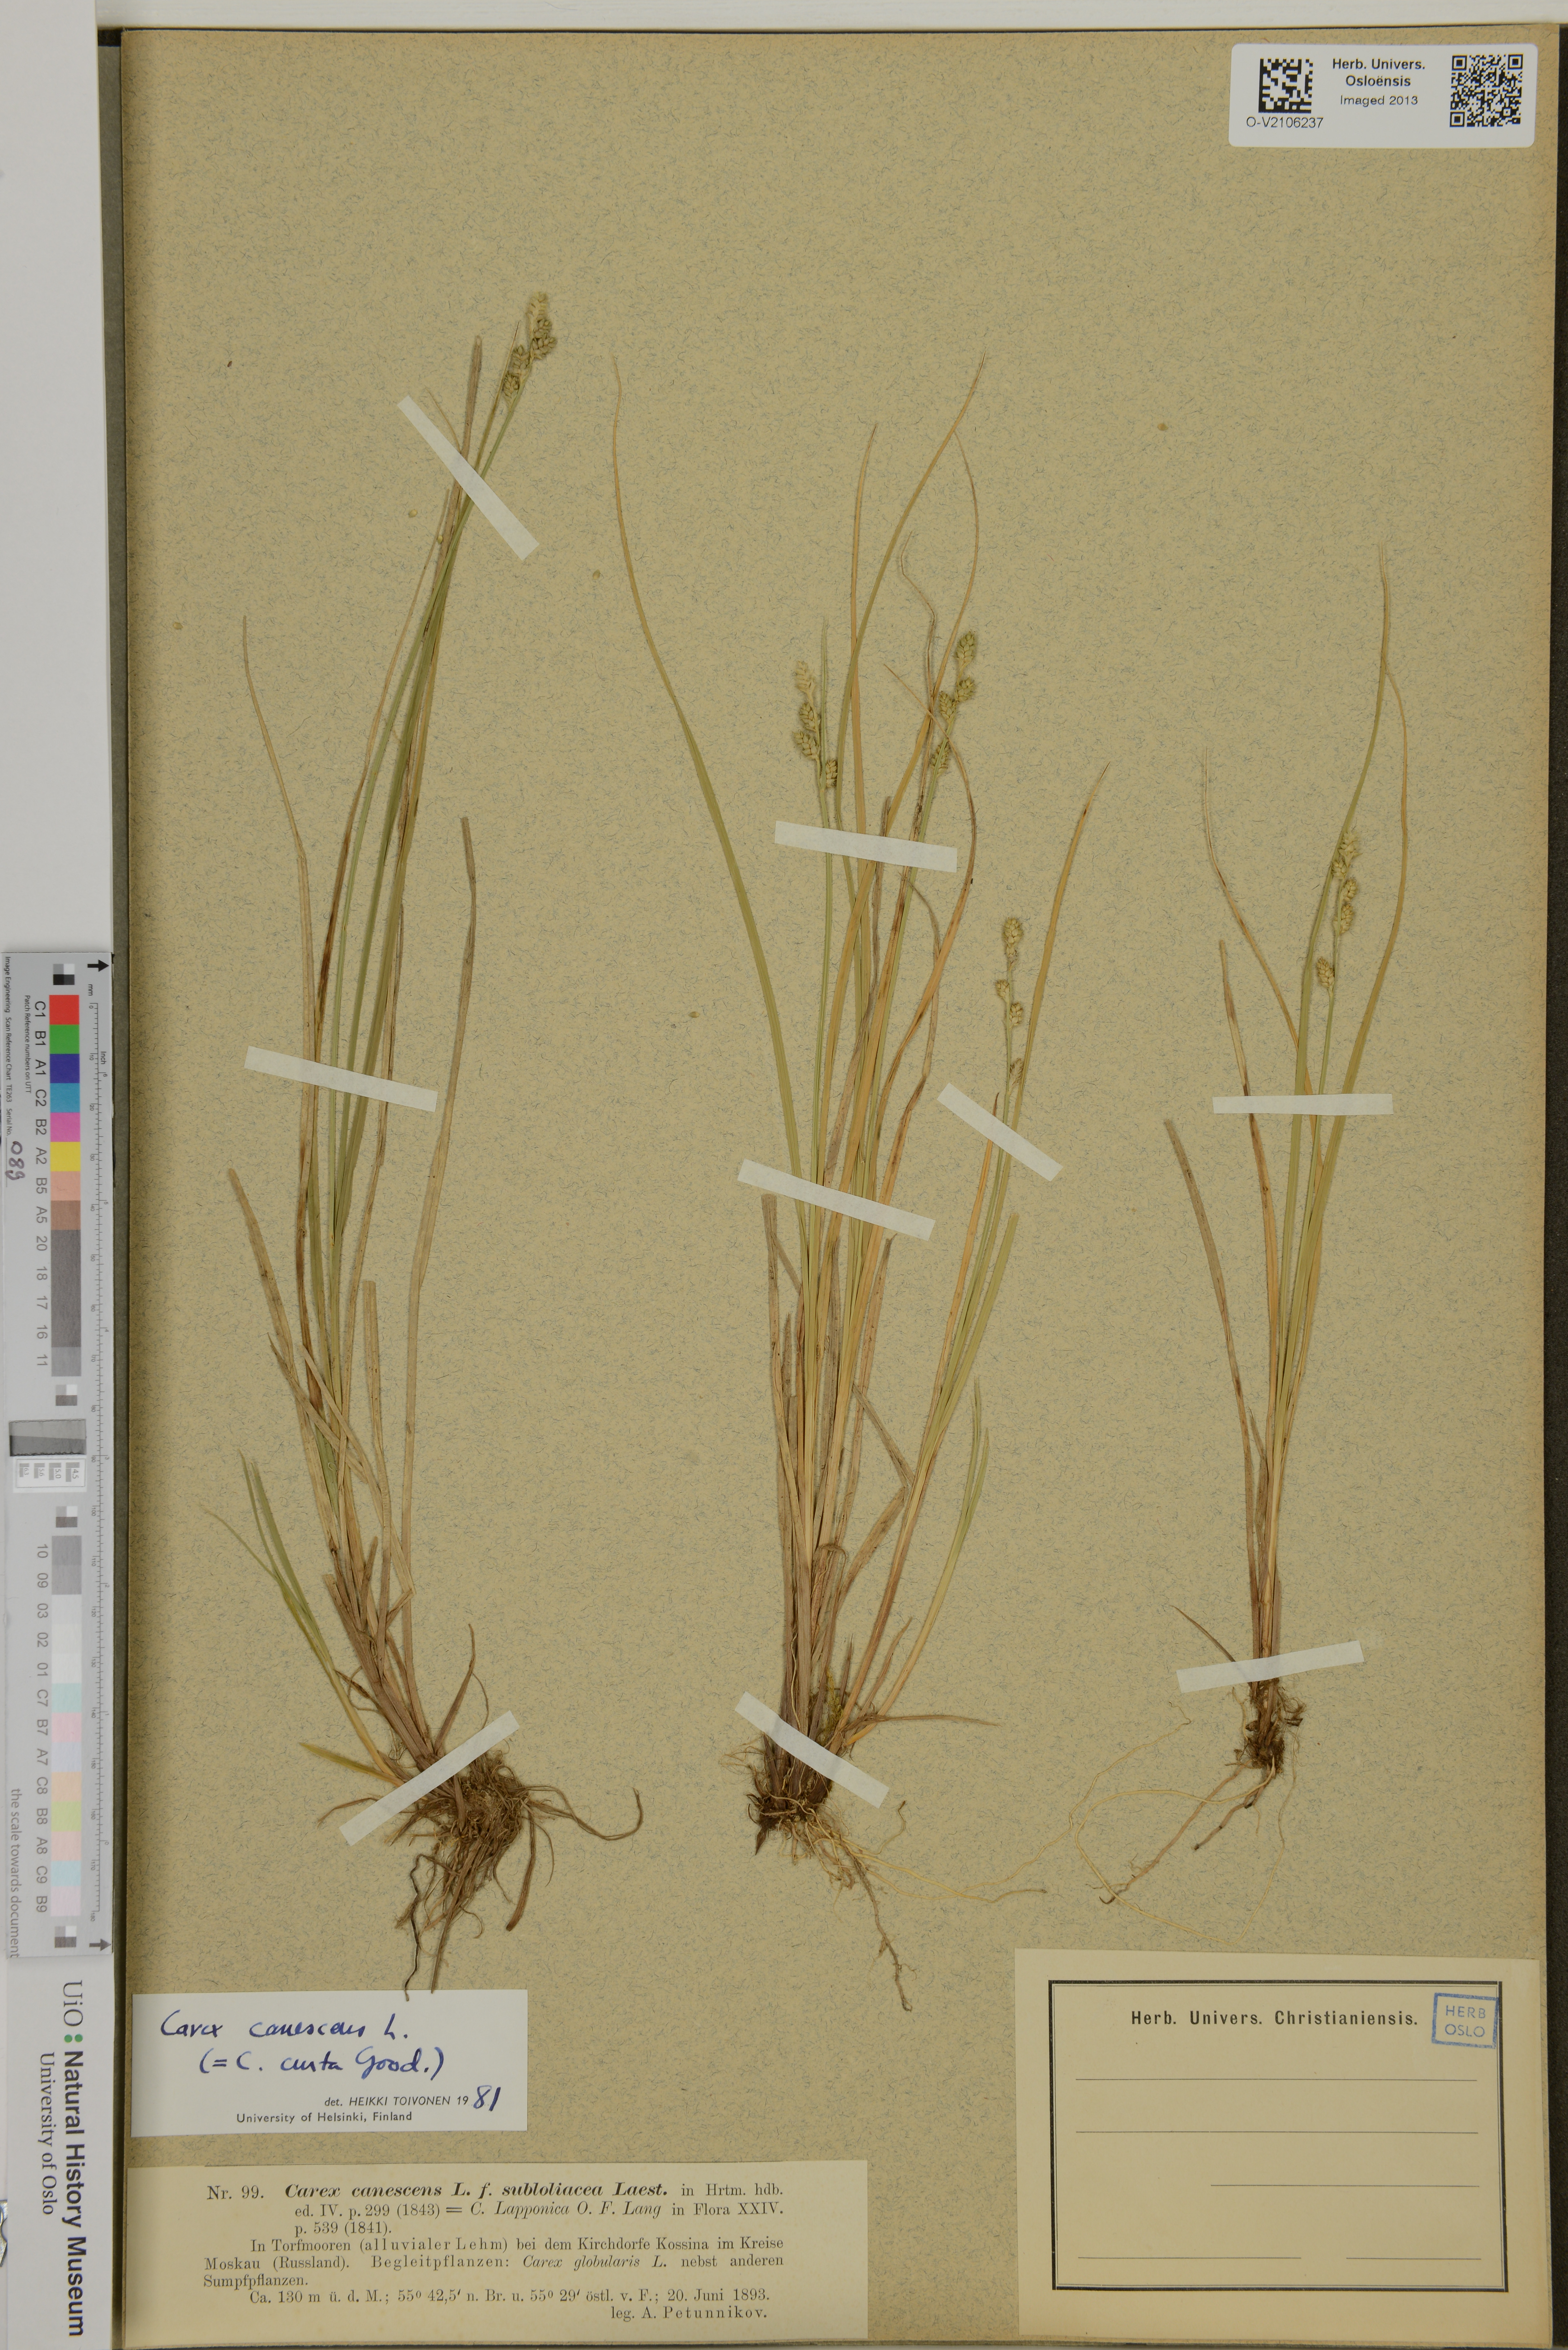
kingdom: Plantae
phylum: Tracheophyta
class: Liliopsida
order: Poales
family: Cyperaceae
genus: Carex
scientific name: Carex canescens
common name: White sedge
